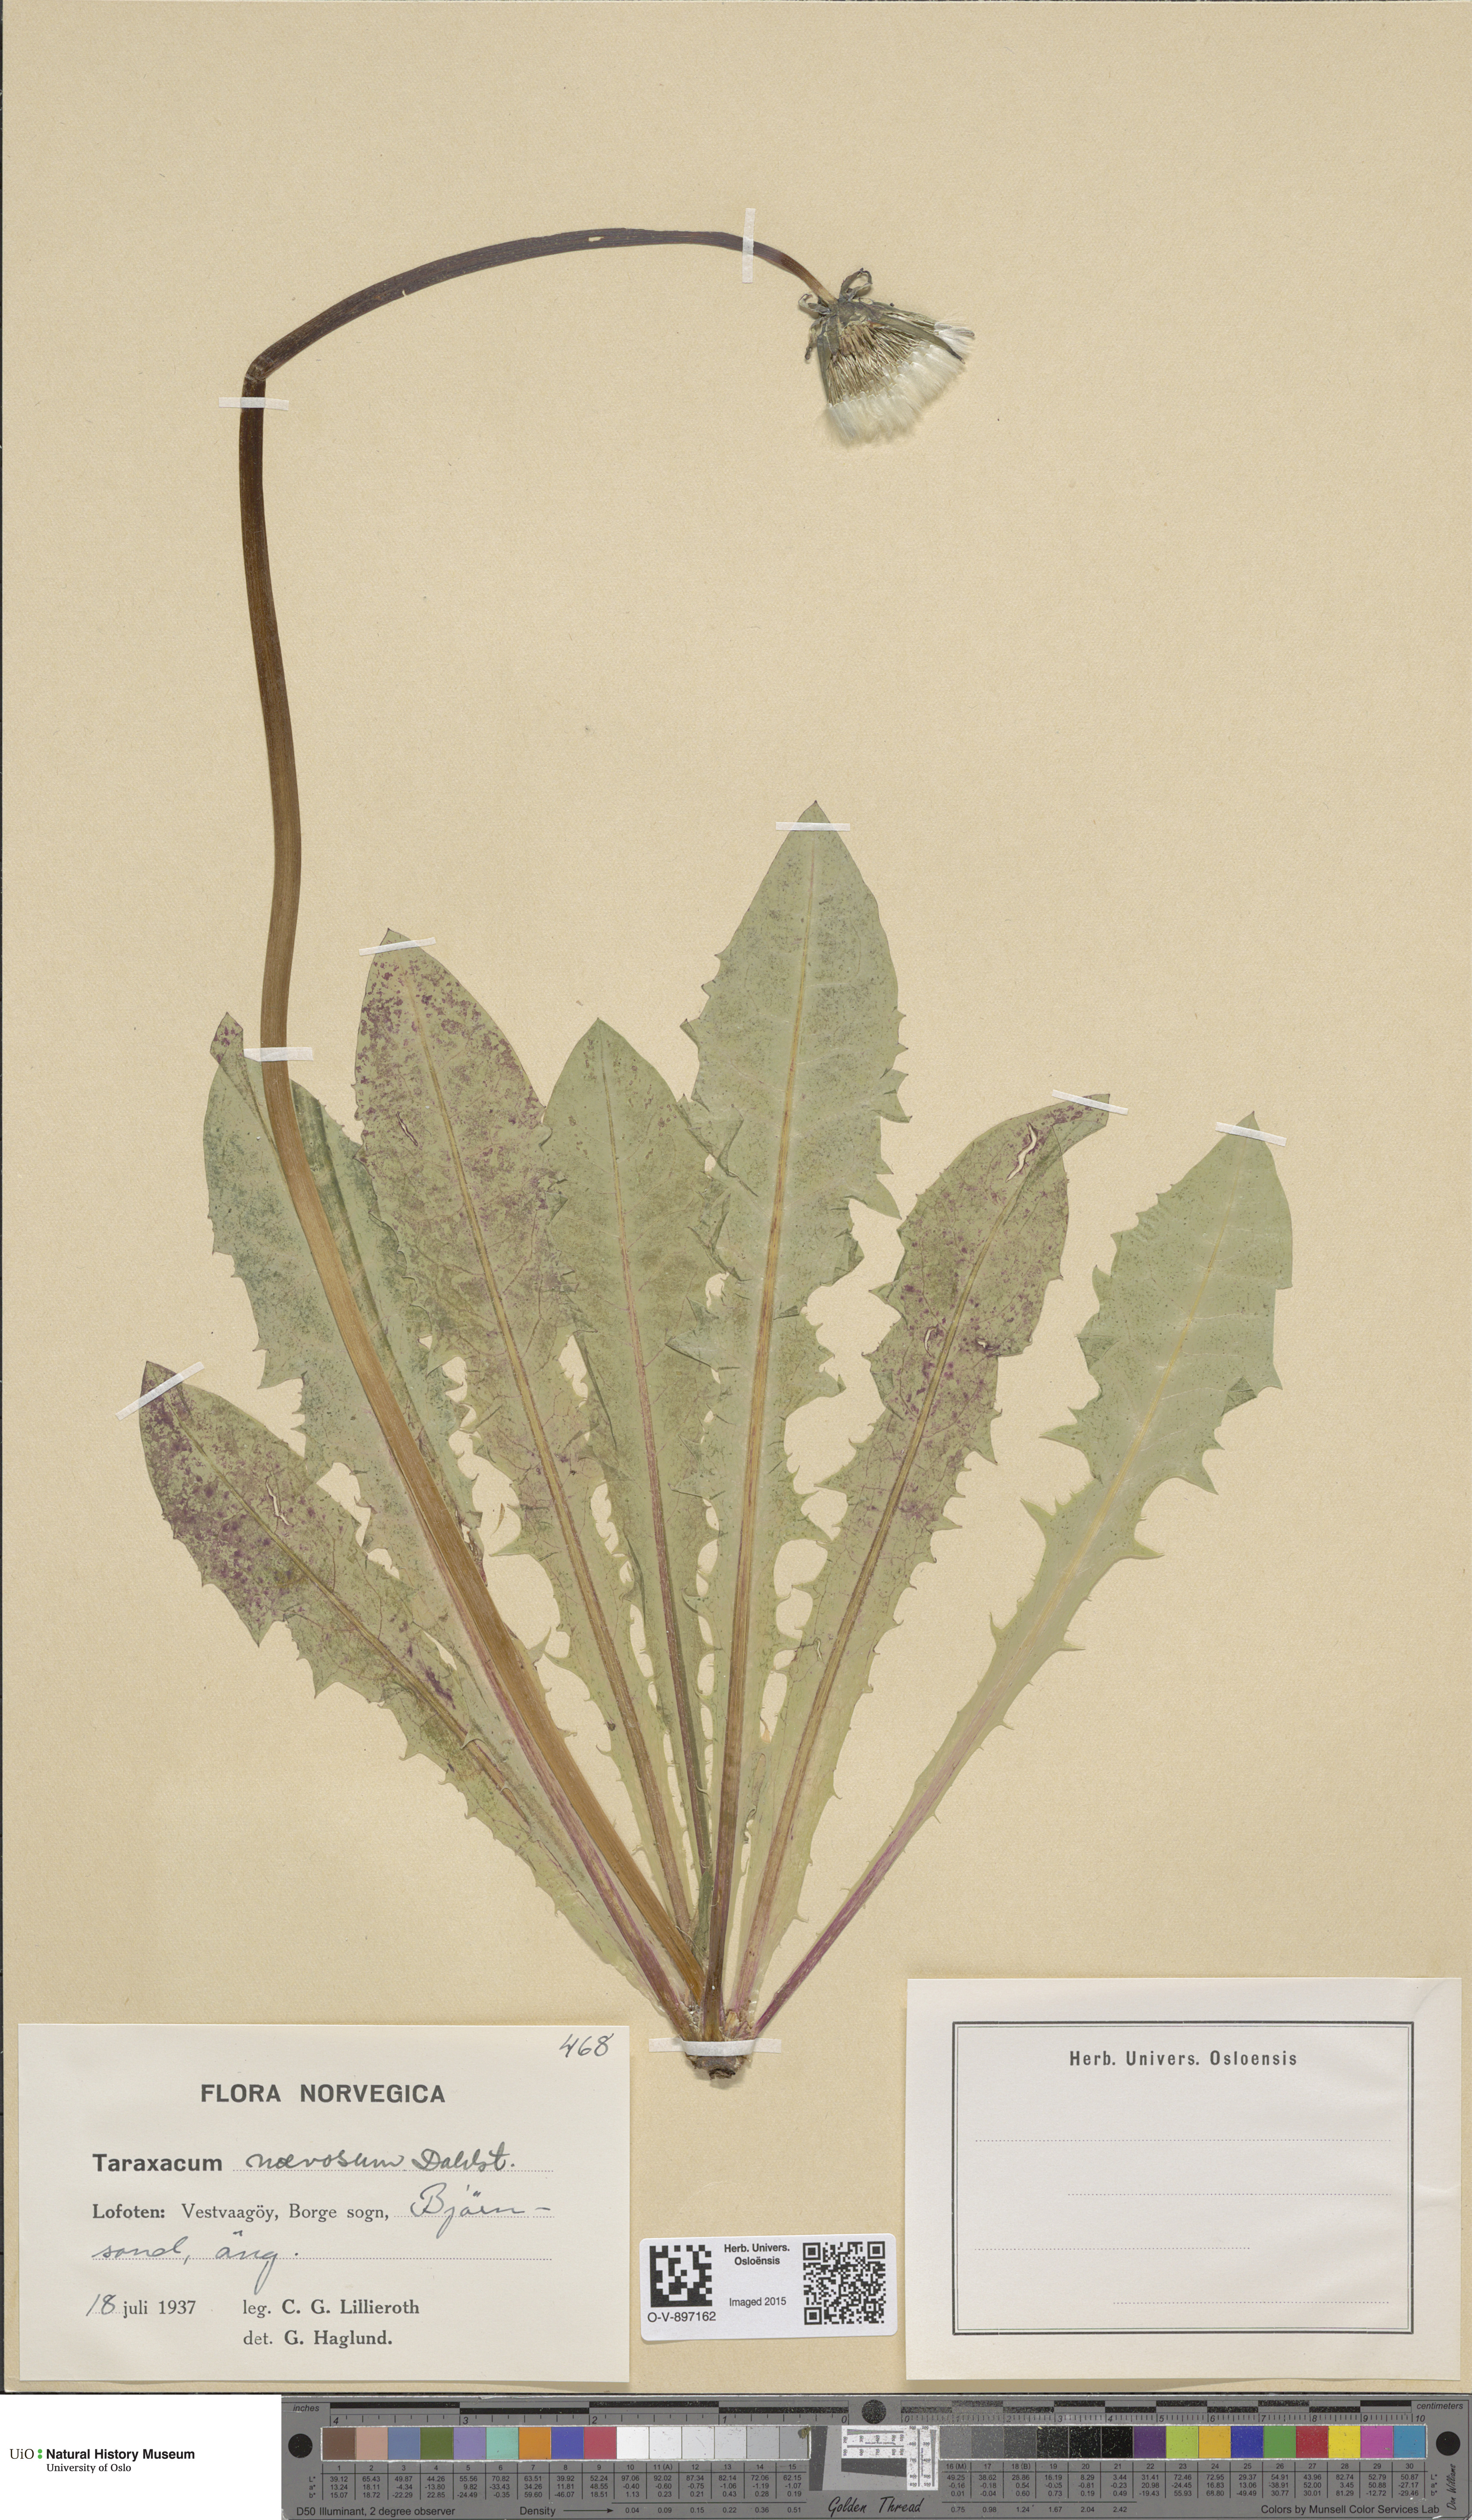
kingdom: Plantae
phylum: Tracheophyta
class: Magnoliopsida
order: Asterales
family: Asteraceae
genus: Taraxacum
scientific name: Taraxacum naevosum
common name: Squat dandelion
